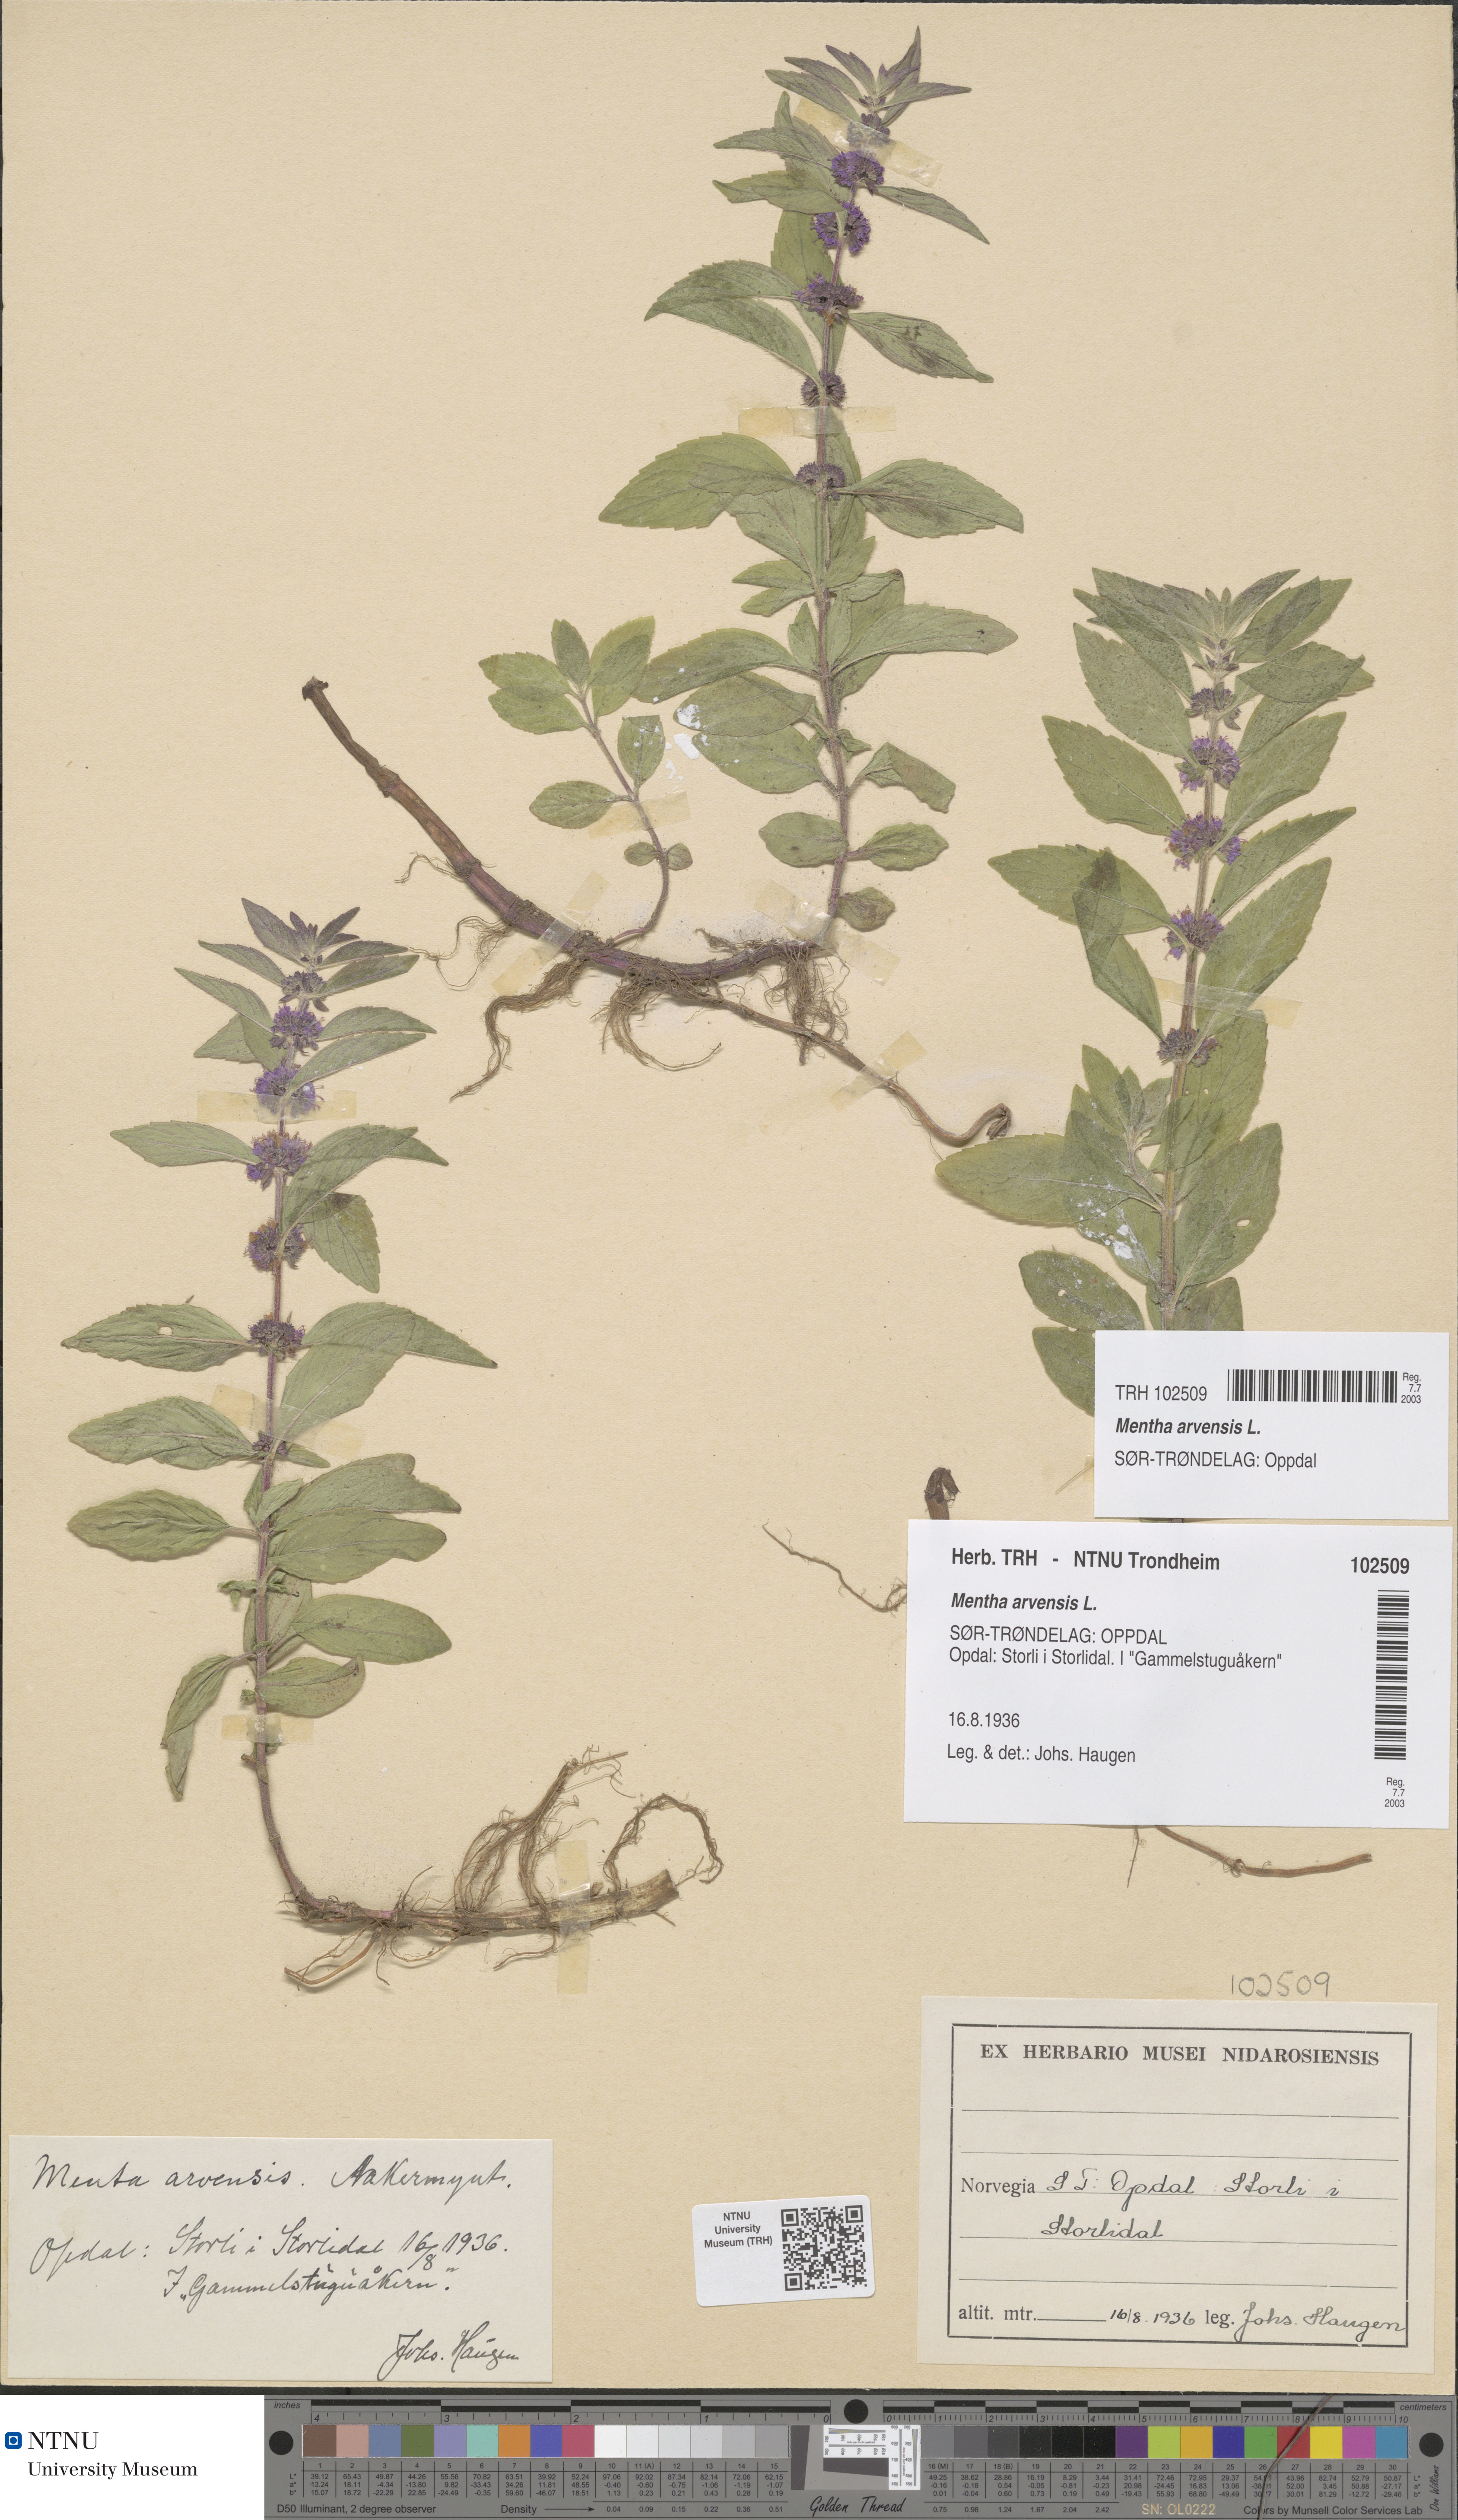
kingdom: Plantae
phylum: Tracheophyta
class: Magnoliopsida
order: Lamiales
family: Lamiaceae
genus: Mentha
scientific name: Mentha arvensis
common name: Corn mint
